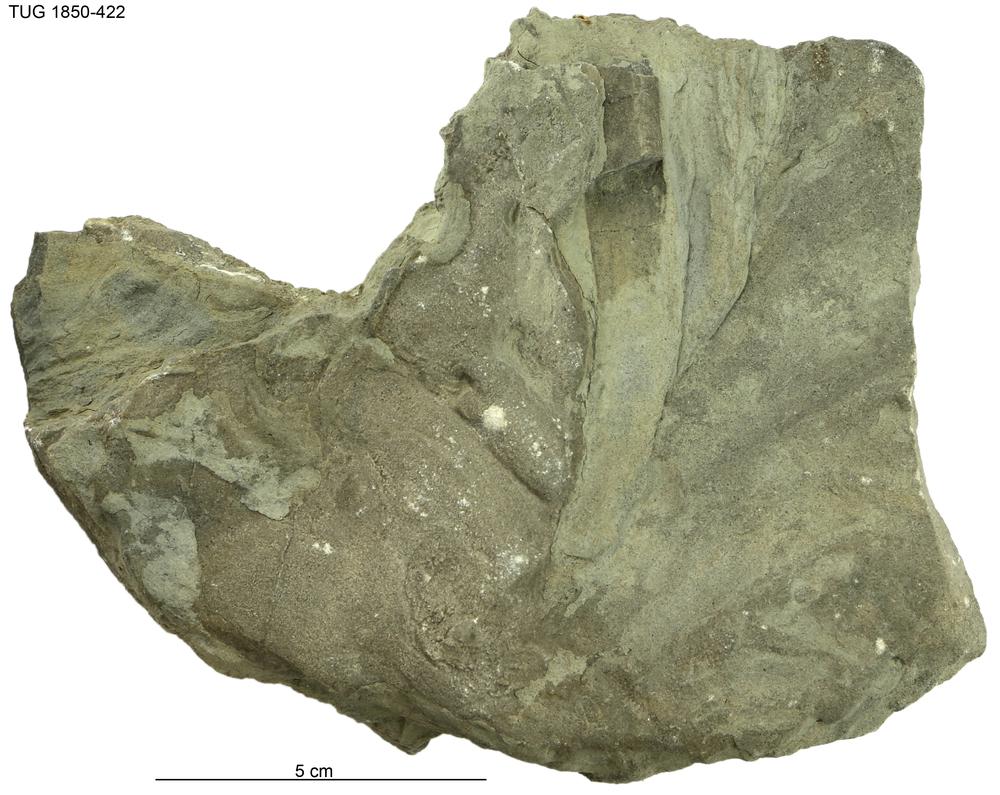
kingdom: Chromista
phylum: Ochrophyta
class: Phaeophyceae
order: Laminariales
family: Laminariaceae
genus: Postelsiopsis
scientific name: Postelsiopsis
